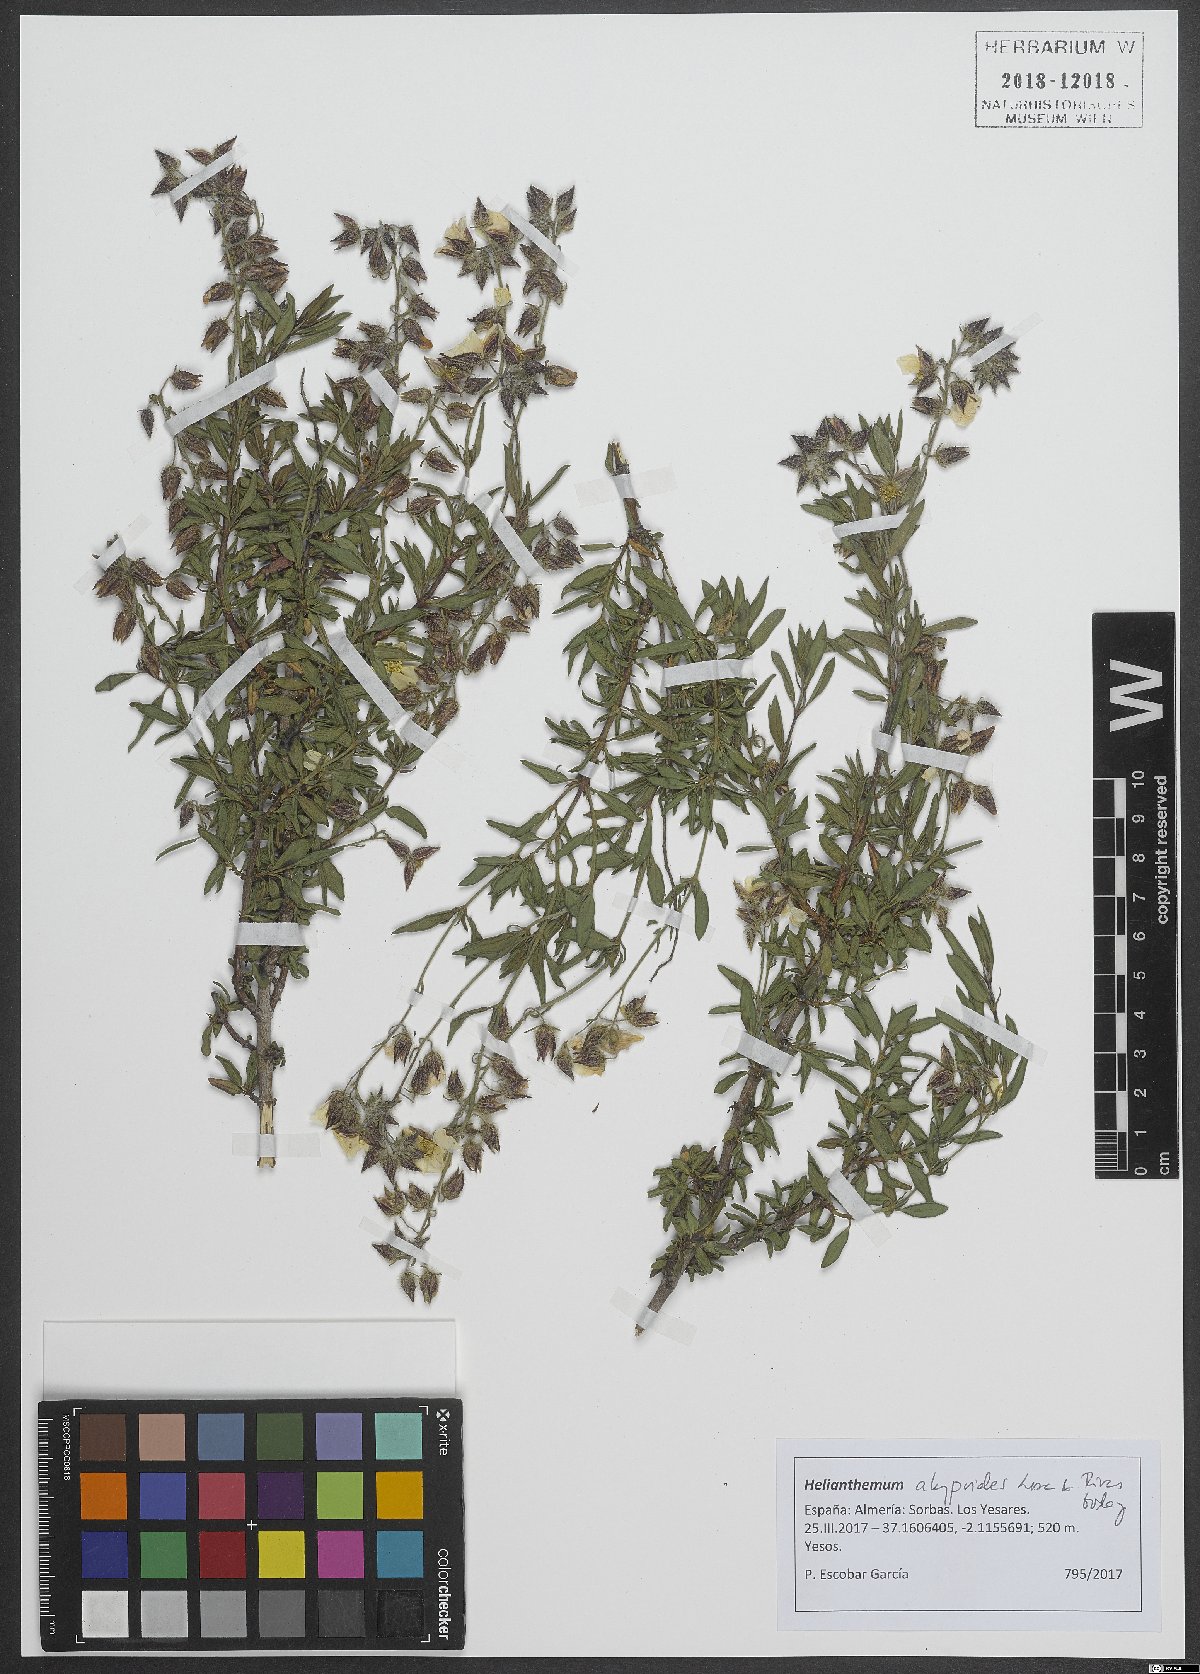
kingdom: Plantae
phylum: Tracheophyta
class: Magnoliopsida
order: Malvales
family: Cistaceae
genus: Helianthemum
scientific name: Helianthemum alypoides
